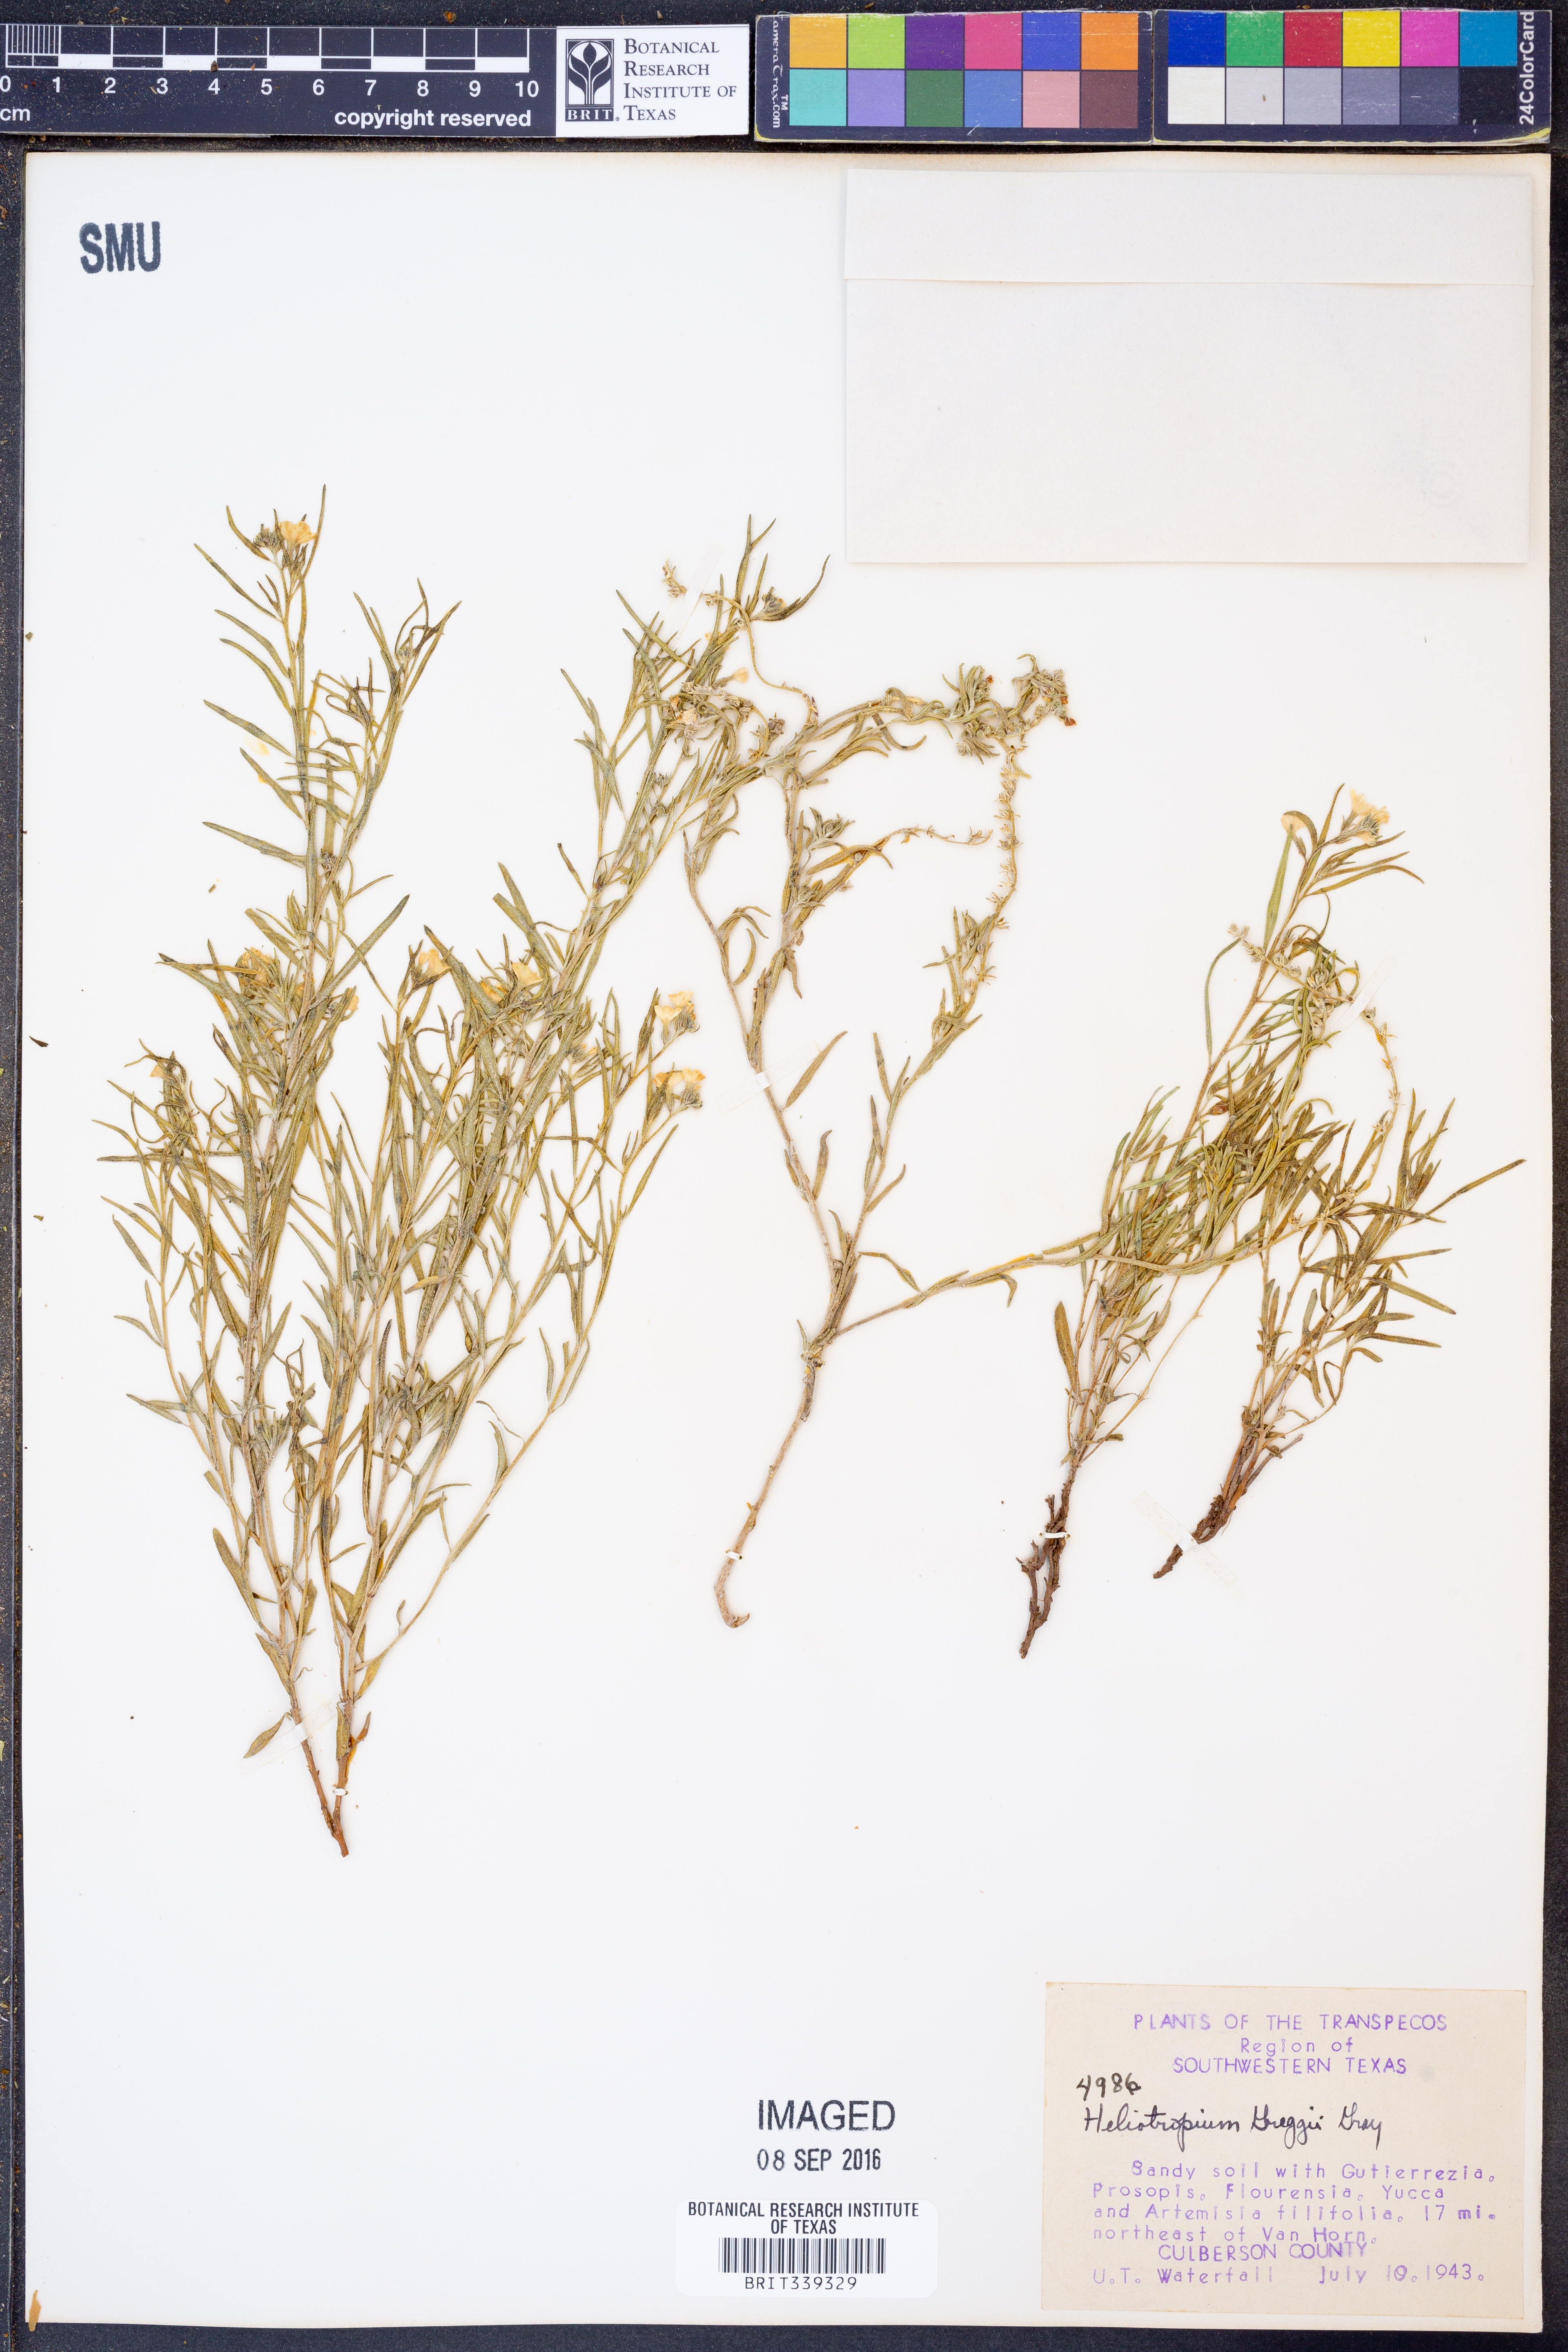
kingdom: Plantae
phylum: Tracheophyta
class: Magnoliopsida
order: Boraginales
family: Heliotropiaceae
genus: Euploca
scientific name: Euploca greggii
